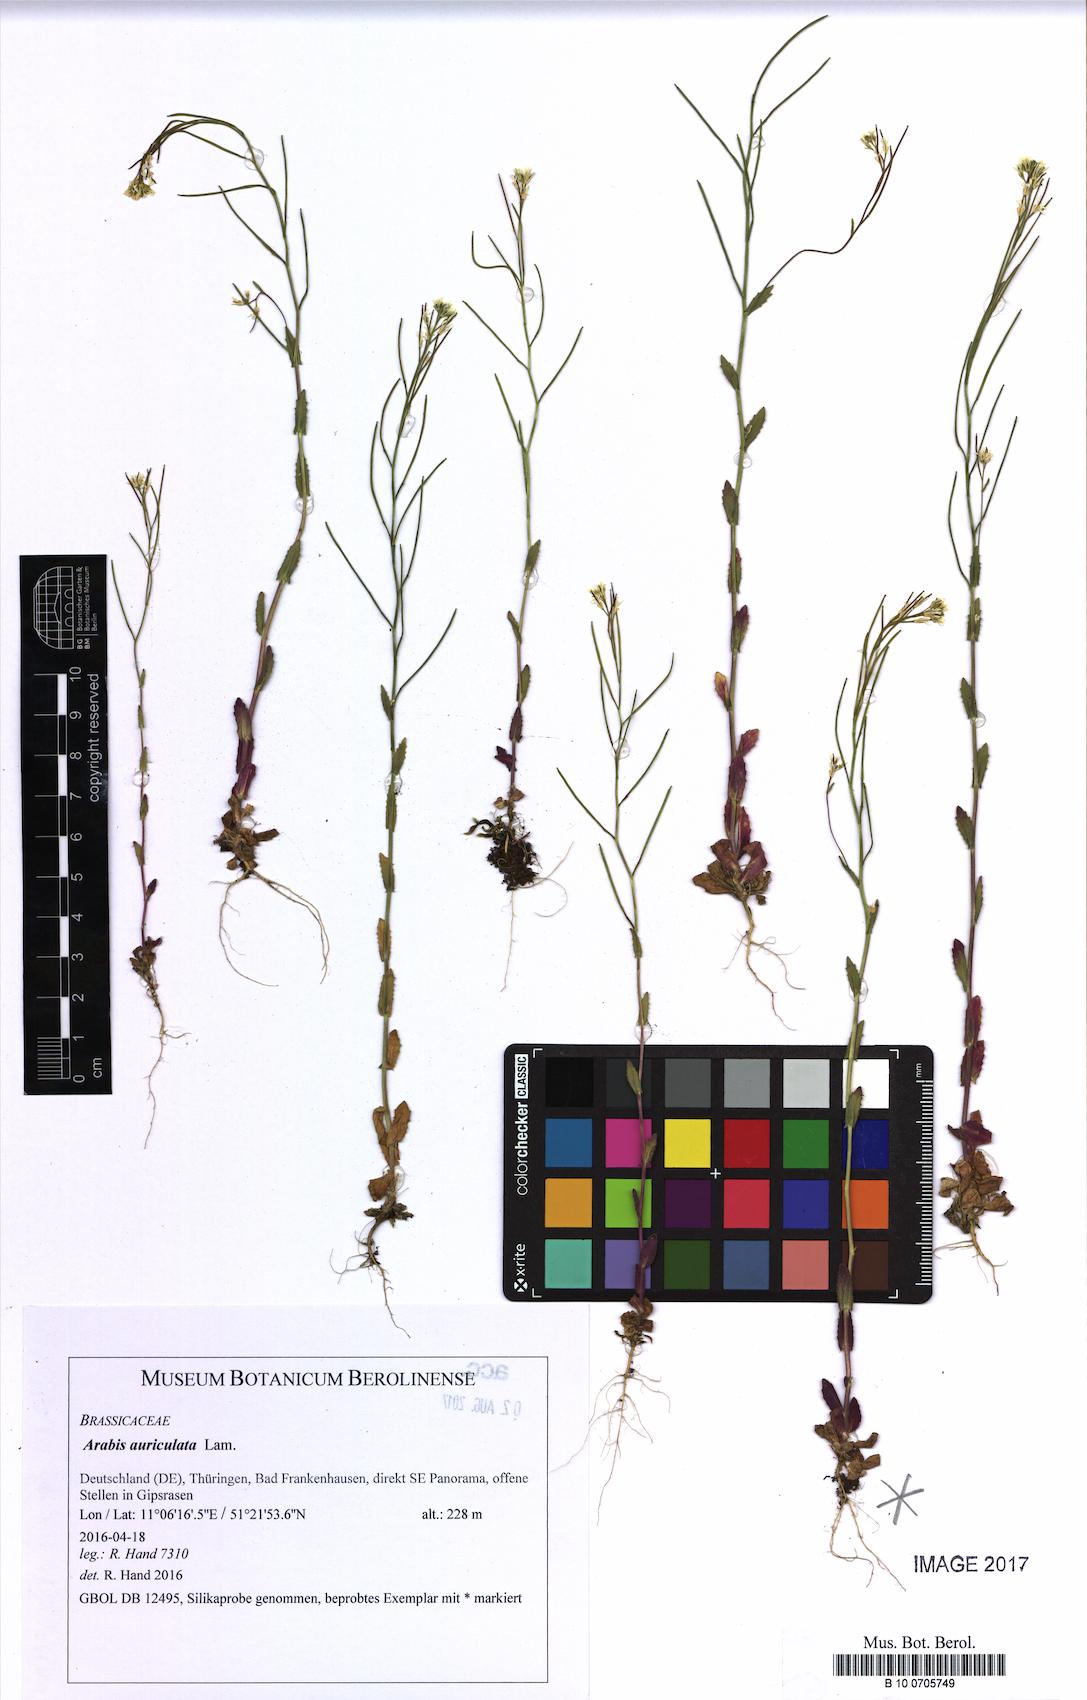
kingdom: Plantae
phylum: Tracheophyta
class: Magnoliopsida
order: Brassicales
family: Brassicaceae
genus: Arabis
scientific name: Arabis auriculata
